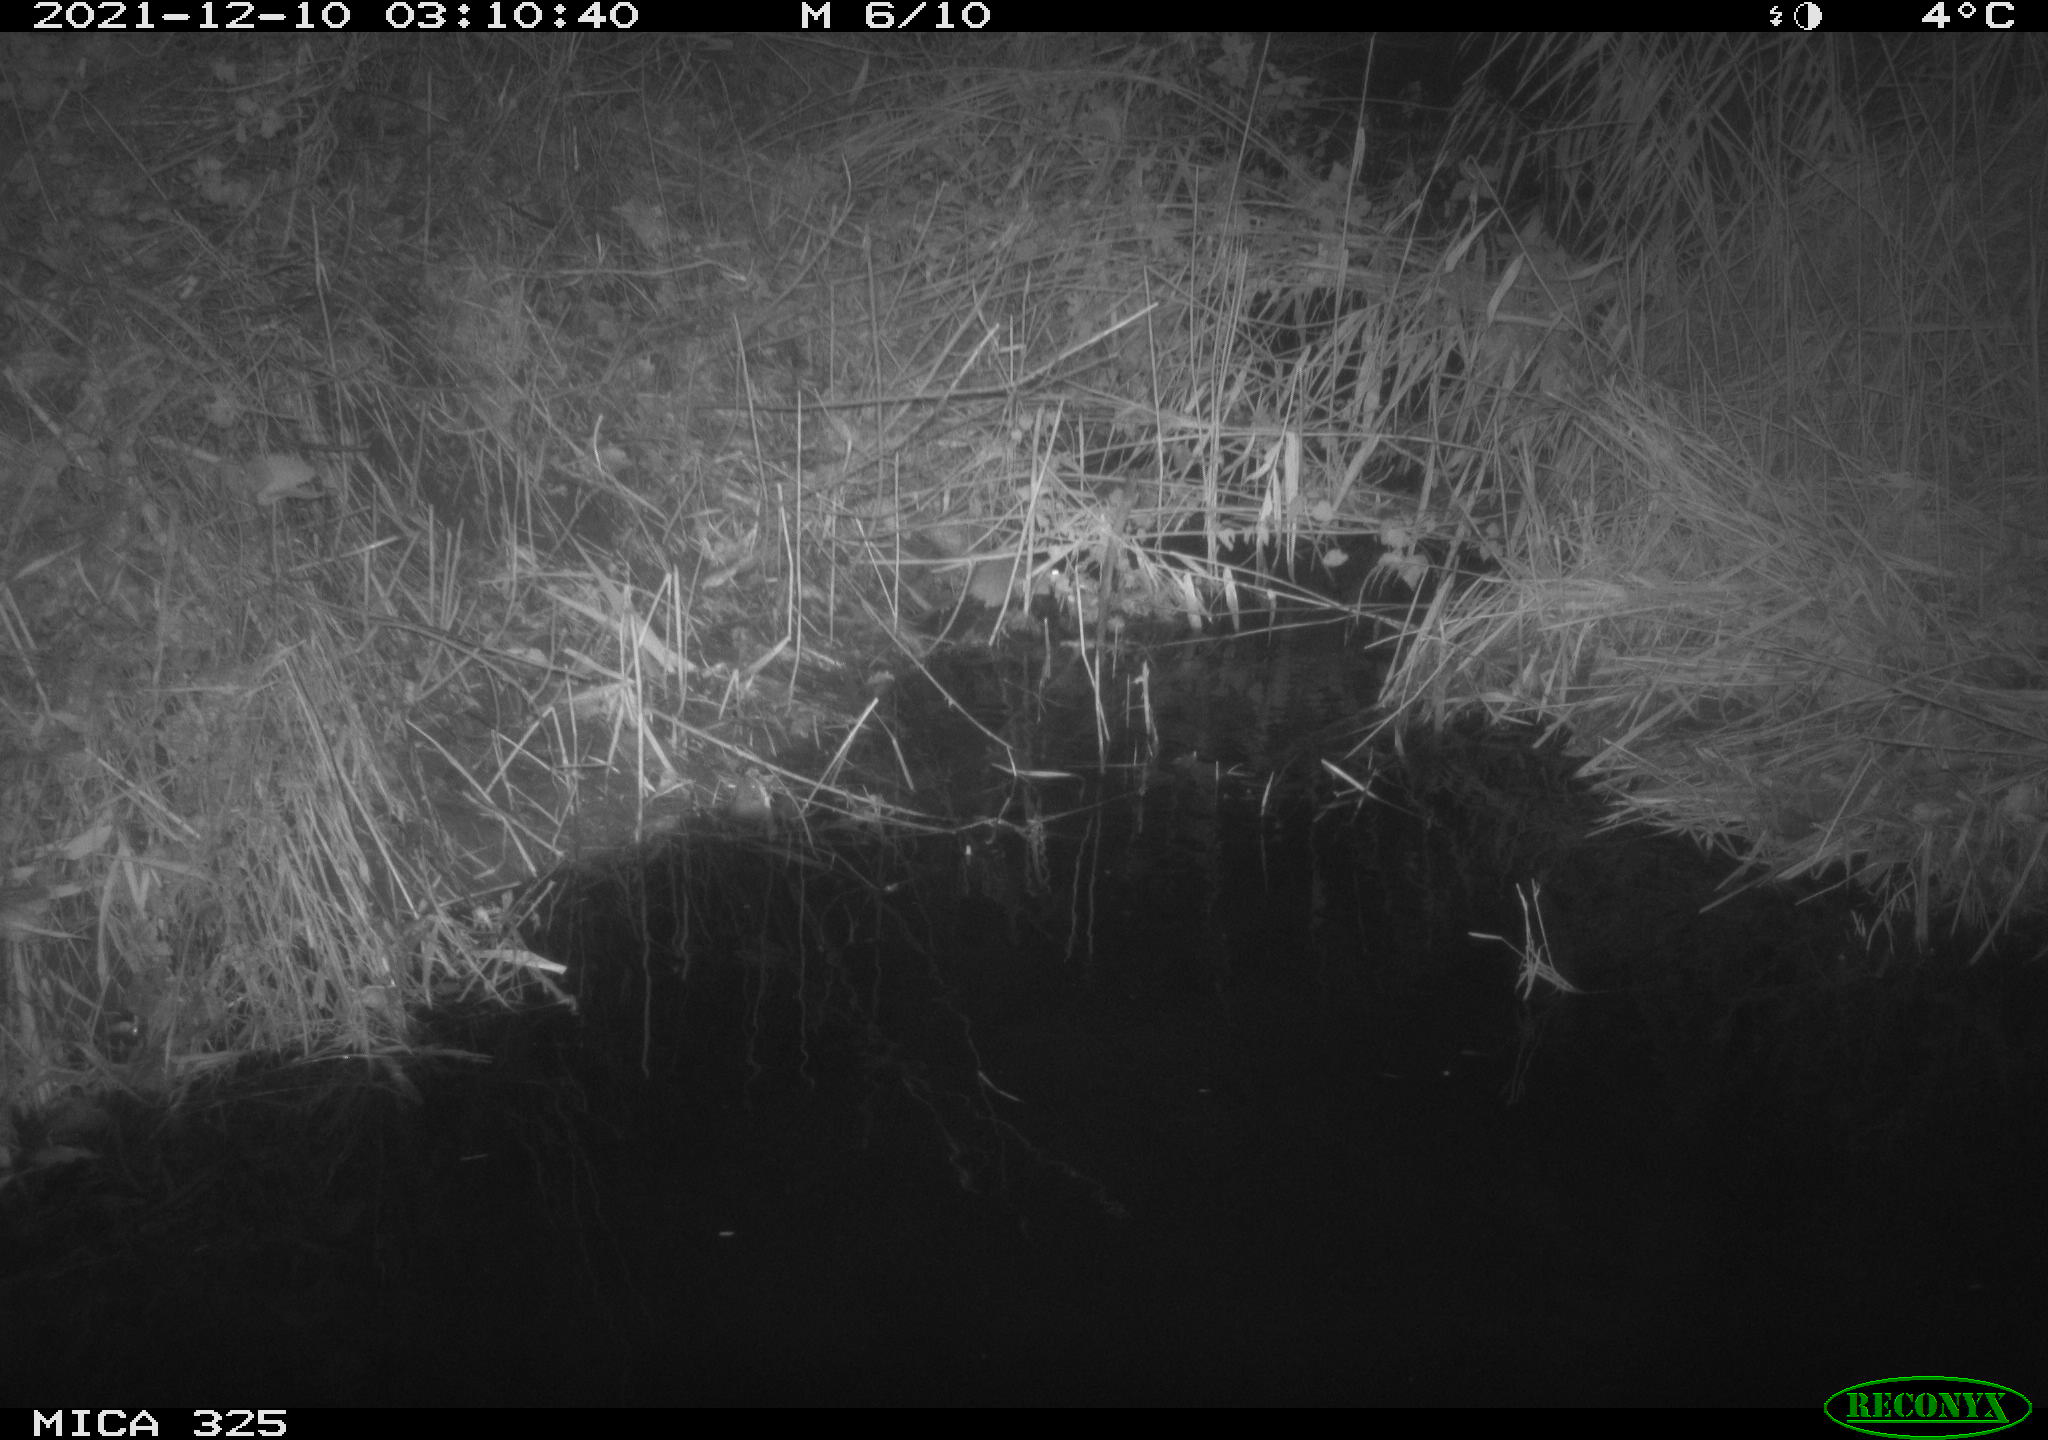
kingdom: Animalia
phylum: Chordata
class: Mammalia
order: Rodentia
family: Muridae
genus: Rattus
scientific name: Rattus norvegicus
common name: Brown rat
